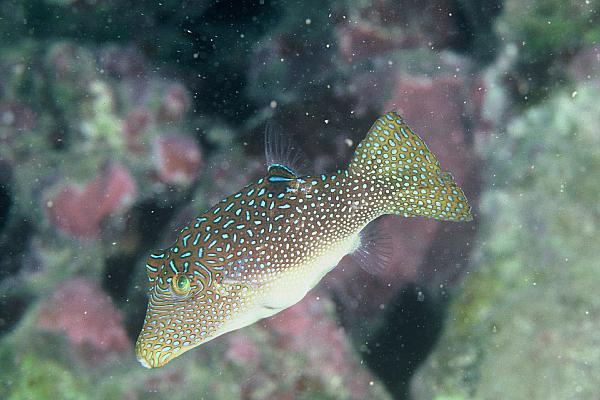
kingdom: Animalia
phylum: Chordata
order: Tetraodontiformes
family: Tetraodontidae
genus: Canthigaster
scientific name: Canthigaster solandri
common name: False-eye toby
